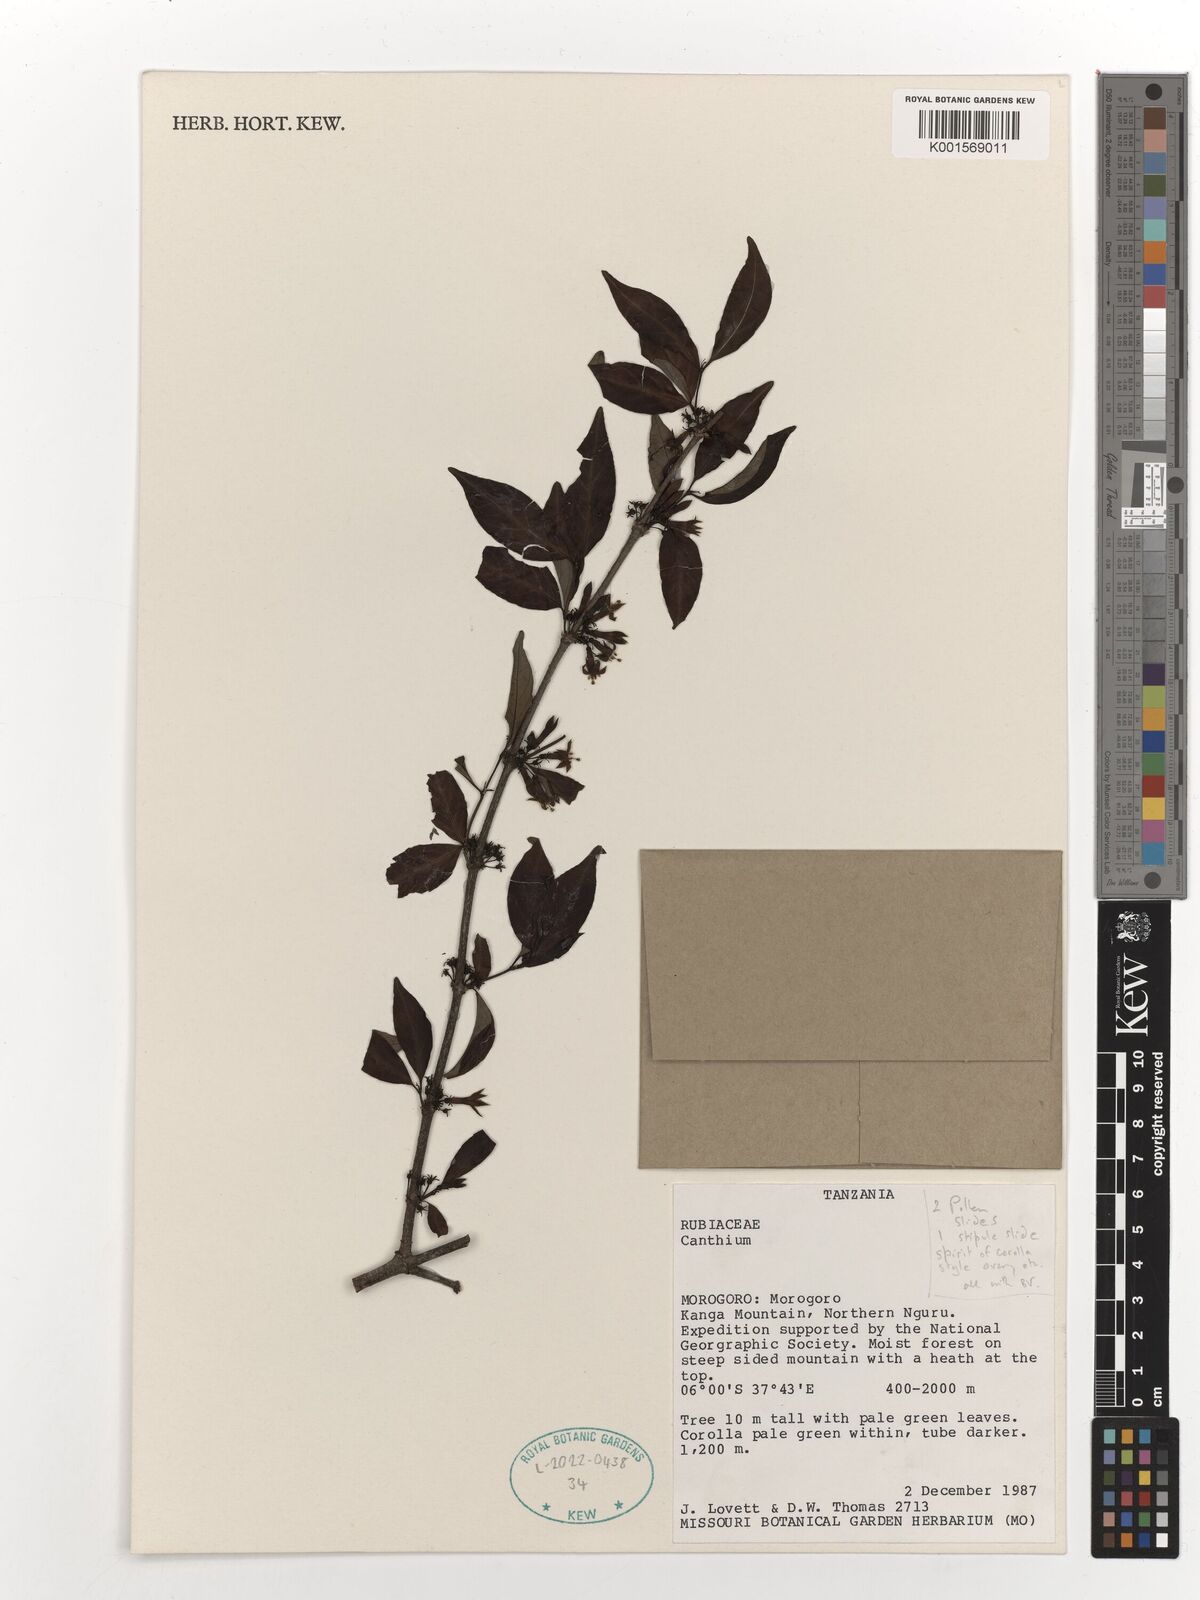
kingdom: Plantae
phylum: Tracheophyta
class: Magnoliopsida
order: Gentianales
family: Rubiaceae
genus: Canthium
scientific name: Canthium
